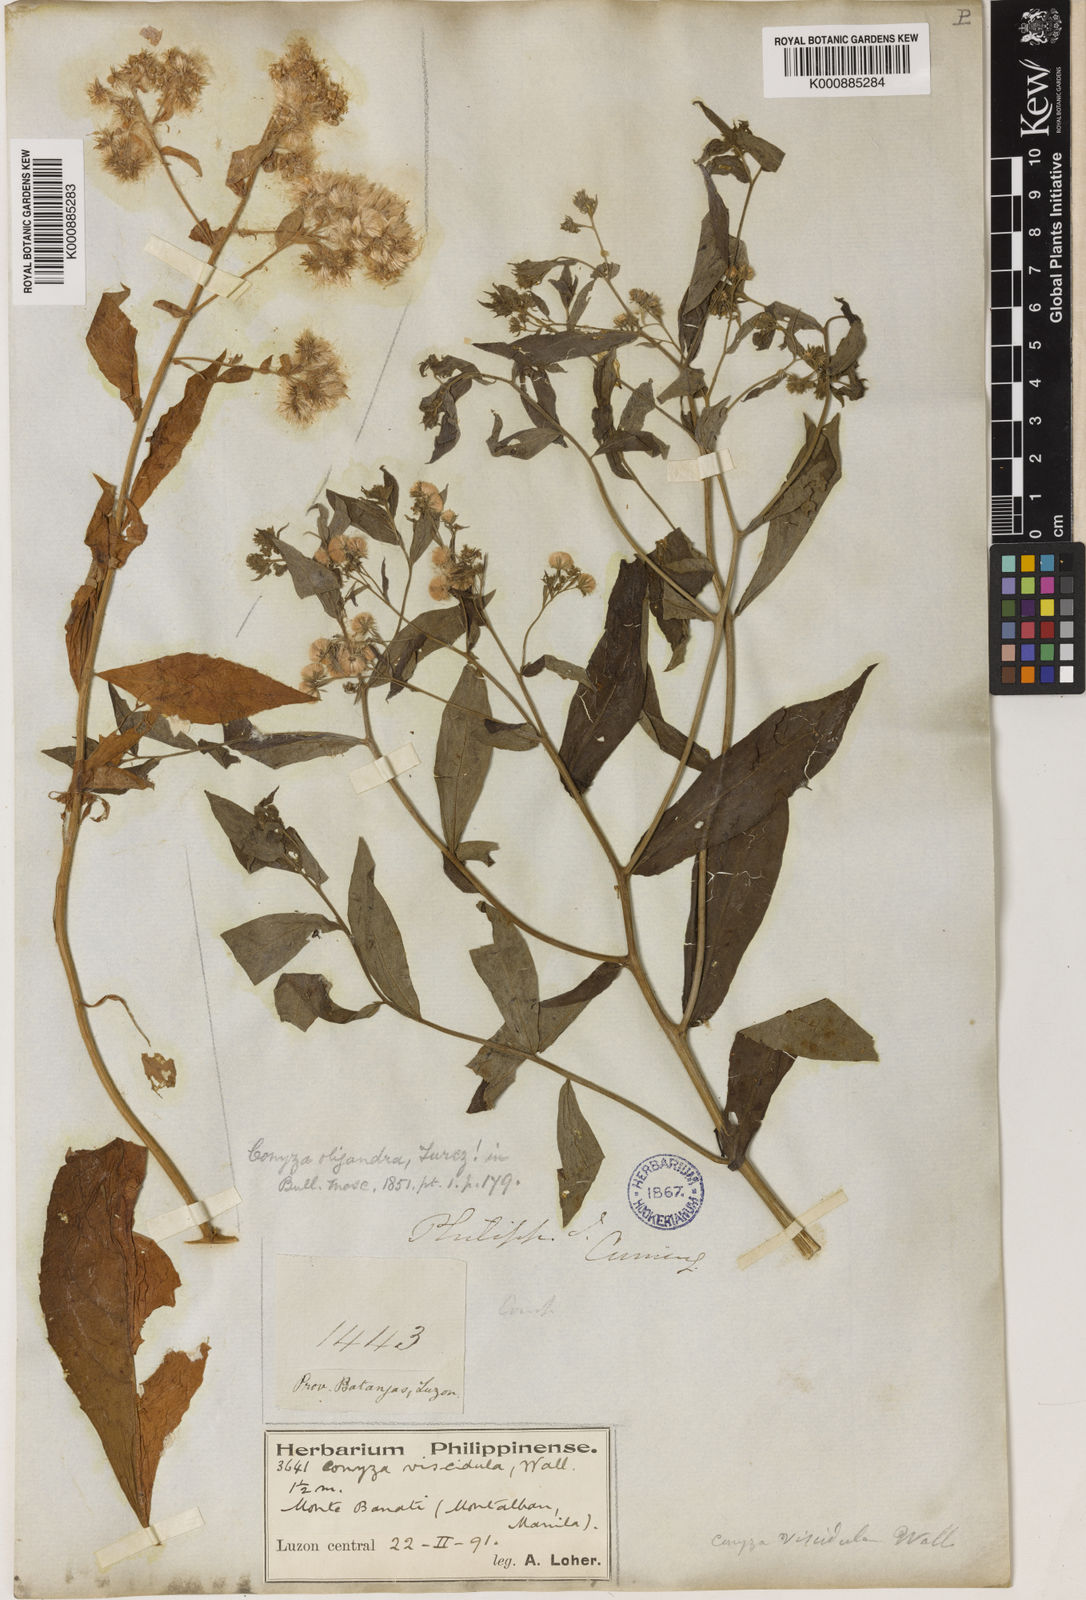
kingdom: Plantae
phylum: Tracheophyta
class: Magnoliopsida
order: Asterales
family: Asteraceae
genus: Eschenbachia
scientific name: Eschenbachia leucantha
